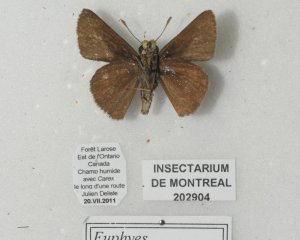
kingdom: Animalia
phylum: Arthropoda
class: Insecta
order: Lepidoptera
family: Hesperiidae
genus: Euphyes
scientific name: Euphyes vestris
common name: Dun Skipper
